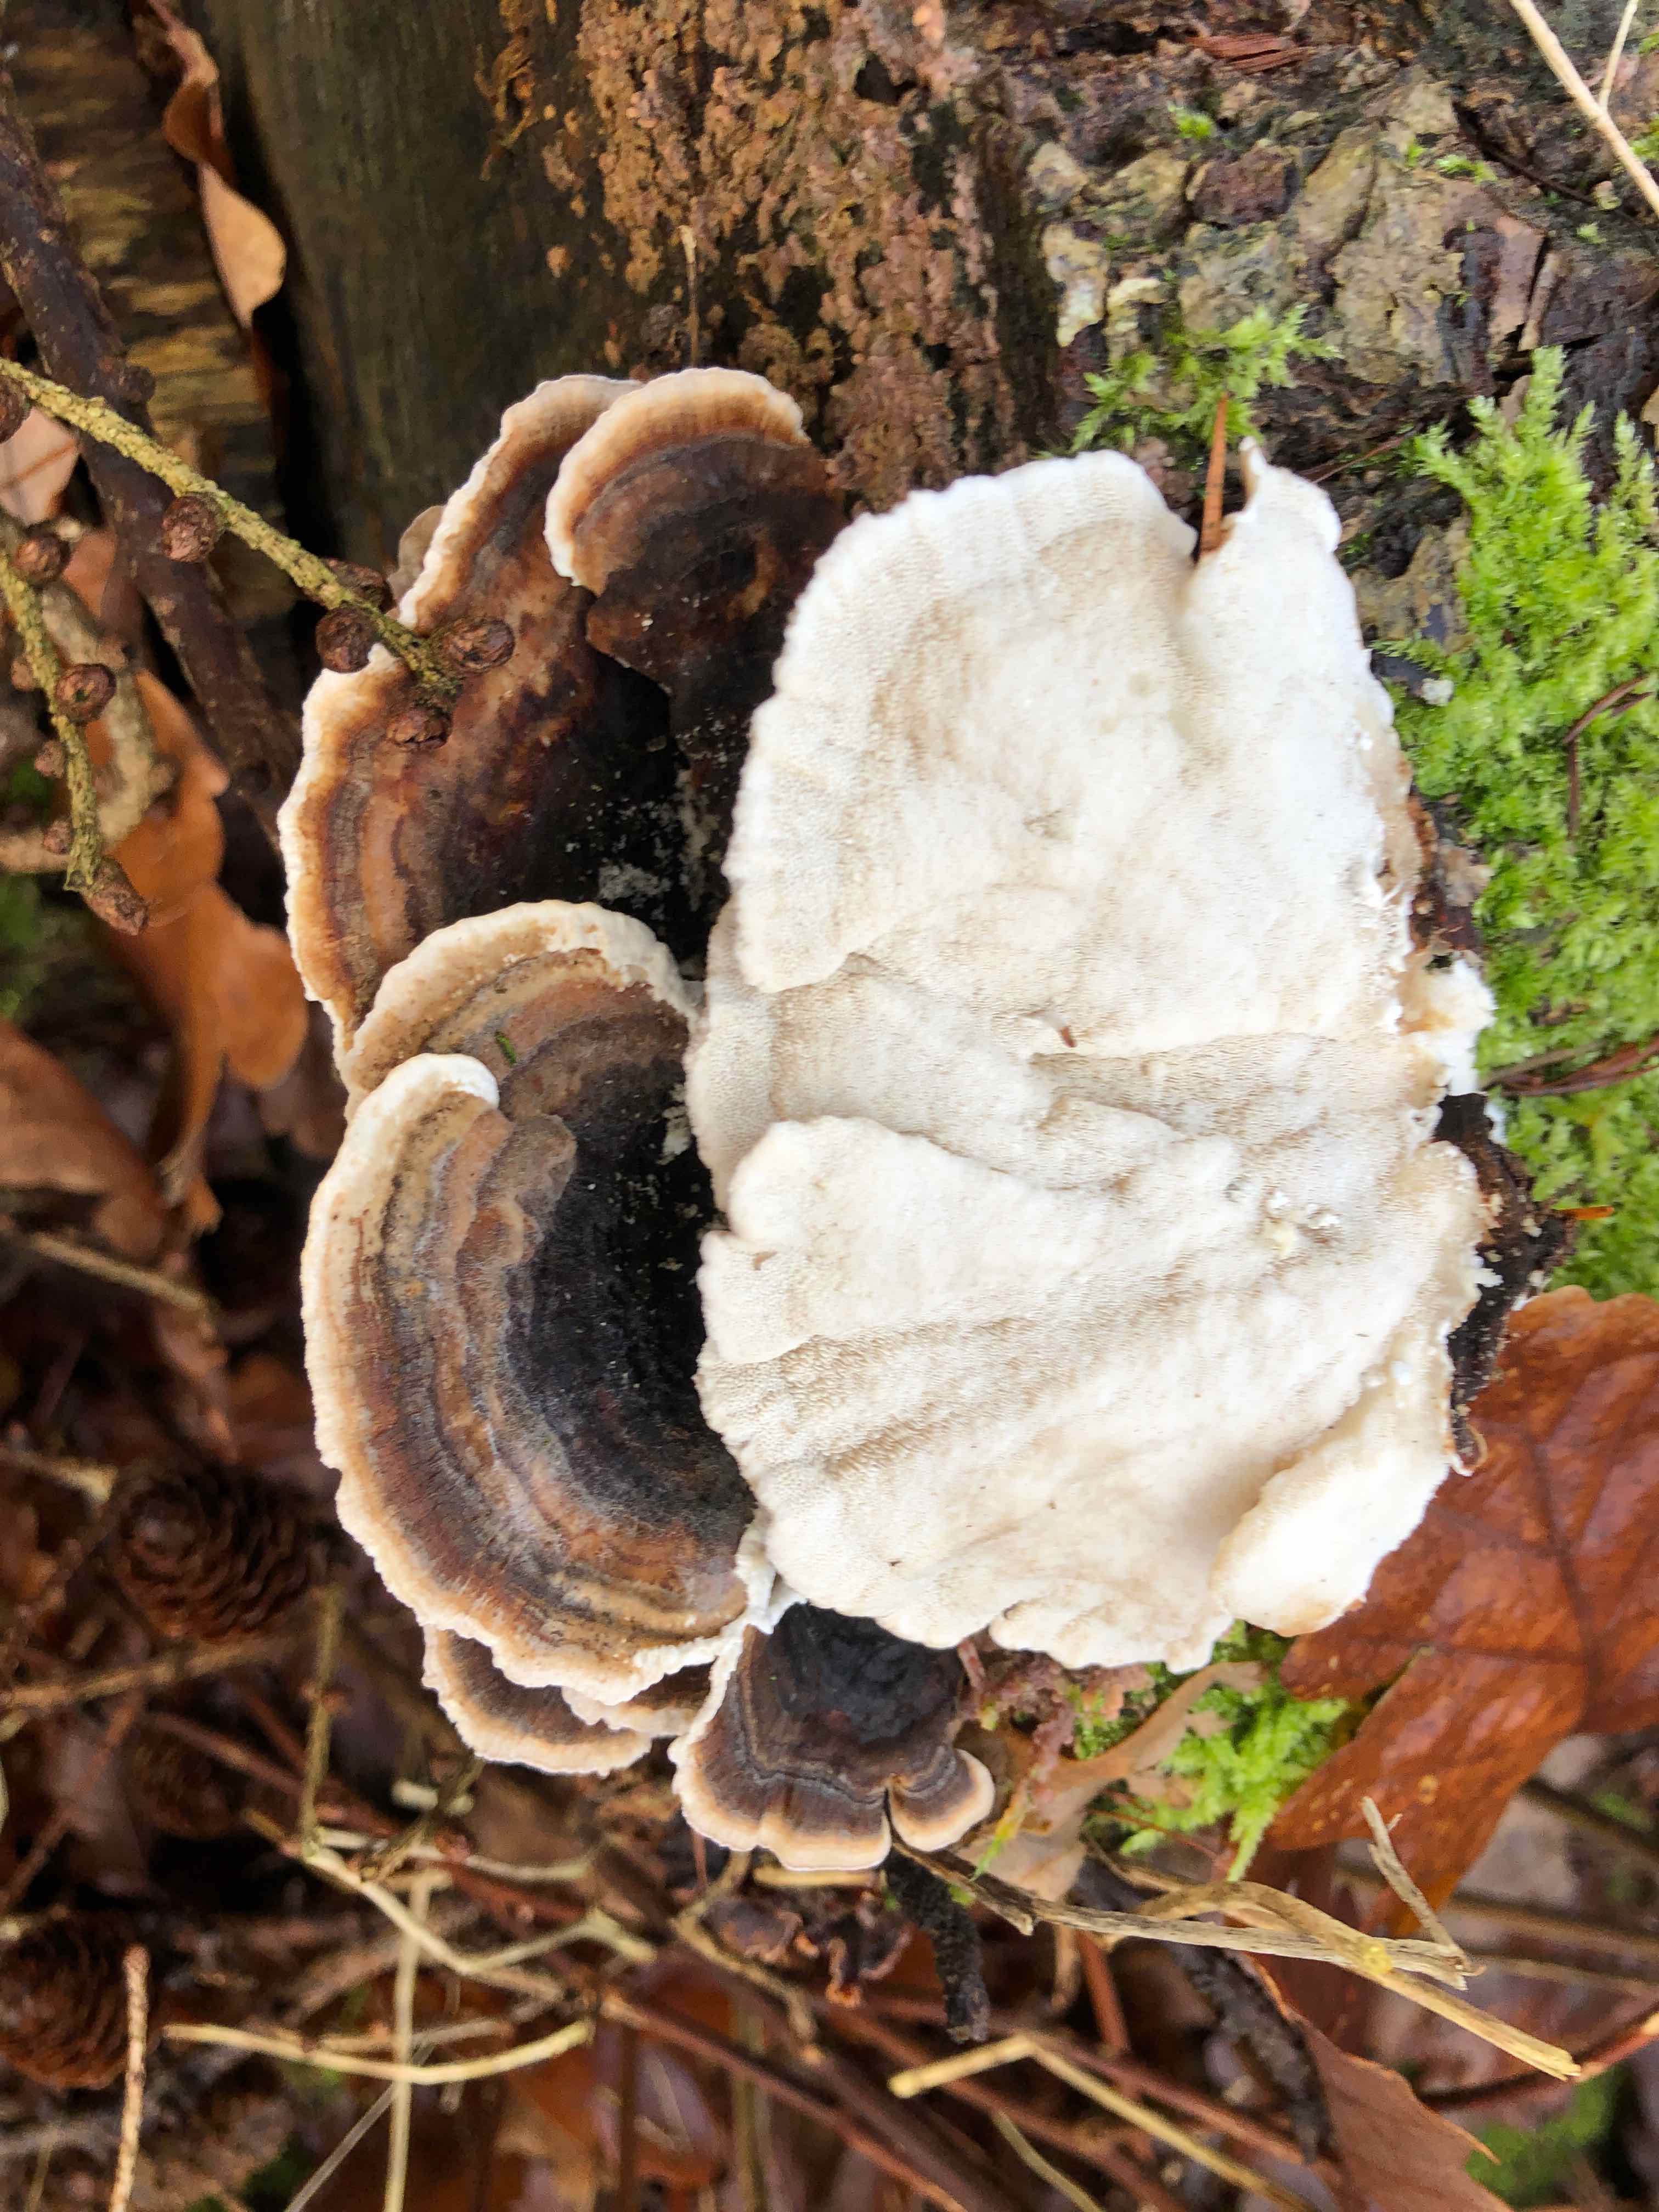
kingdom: Fungi
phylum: Basidiomycota
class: Agaricomycetes
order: Polyporales
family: Polyporaceae
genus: Trametes
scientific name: Trametes versicolor
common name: broget læderporesvamp
